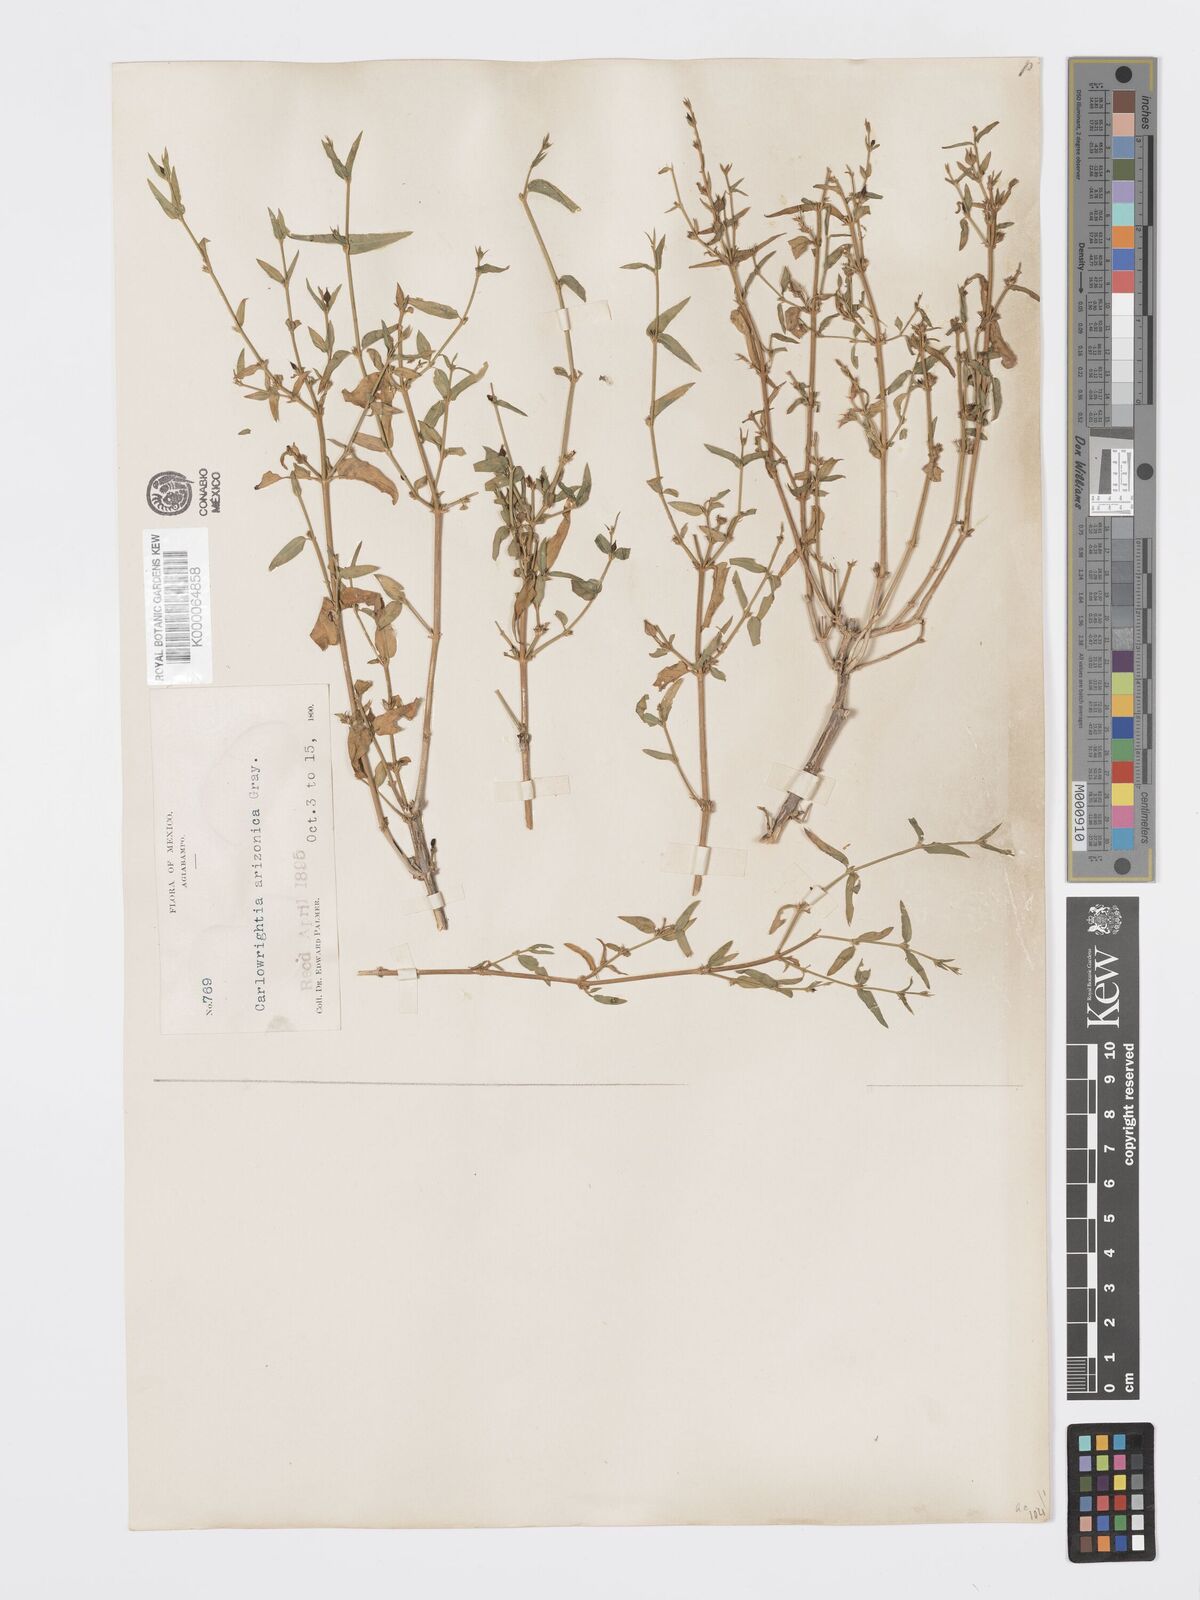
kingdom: Plantae
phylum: Tracheophyta
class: Magnoliopsida
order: Lamiales
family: Acanthaceae
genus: Carlowrightia
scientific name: Carlowrightia arizonica
